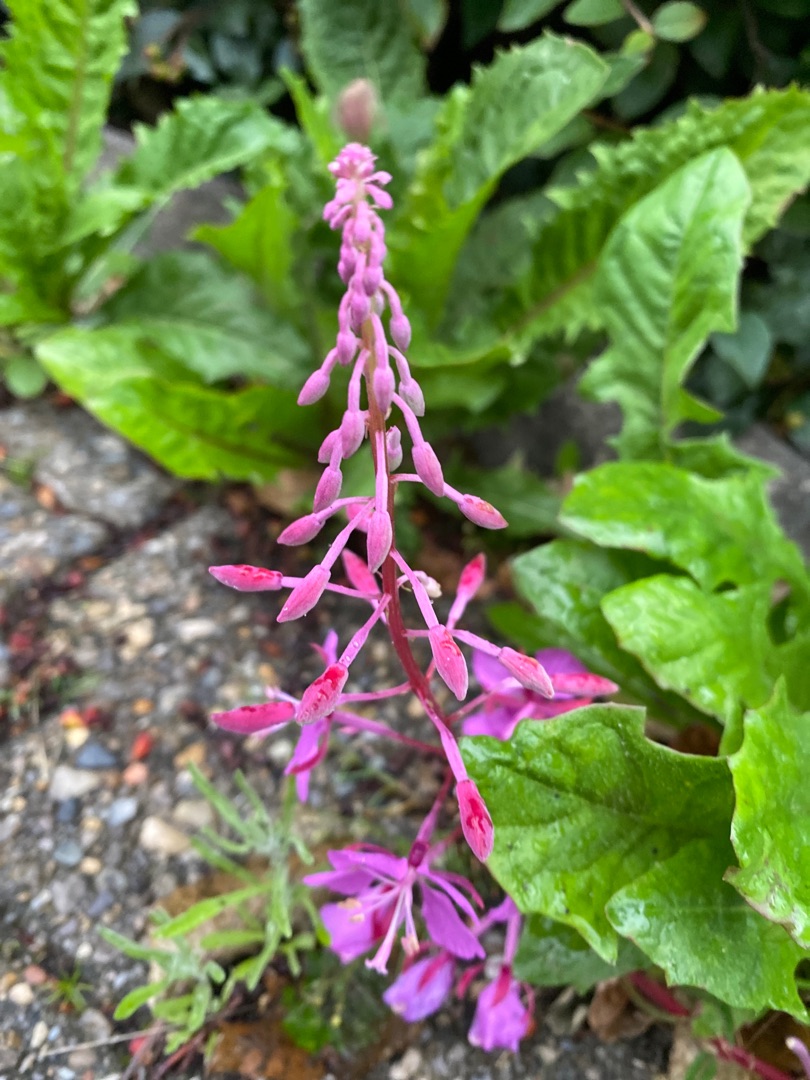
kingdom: Plantae
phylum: Tracheophyta
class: Magnoliopsida
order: Myrtales
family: Onagraceae
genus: Chamaenerion
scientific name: Chamaenerion angustifolium
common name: Gederams
